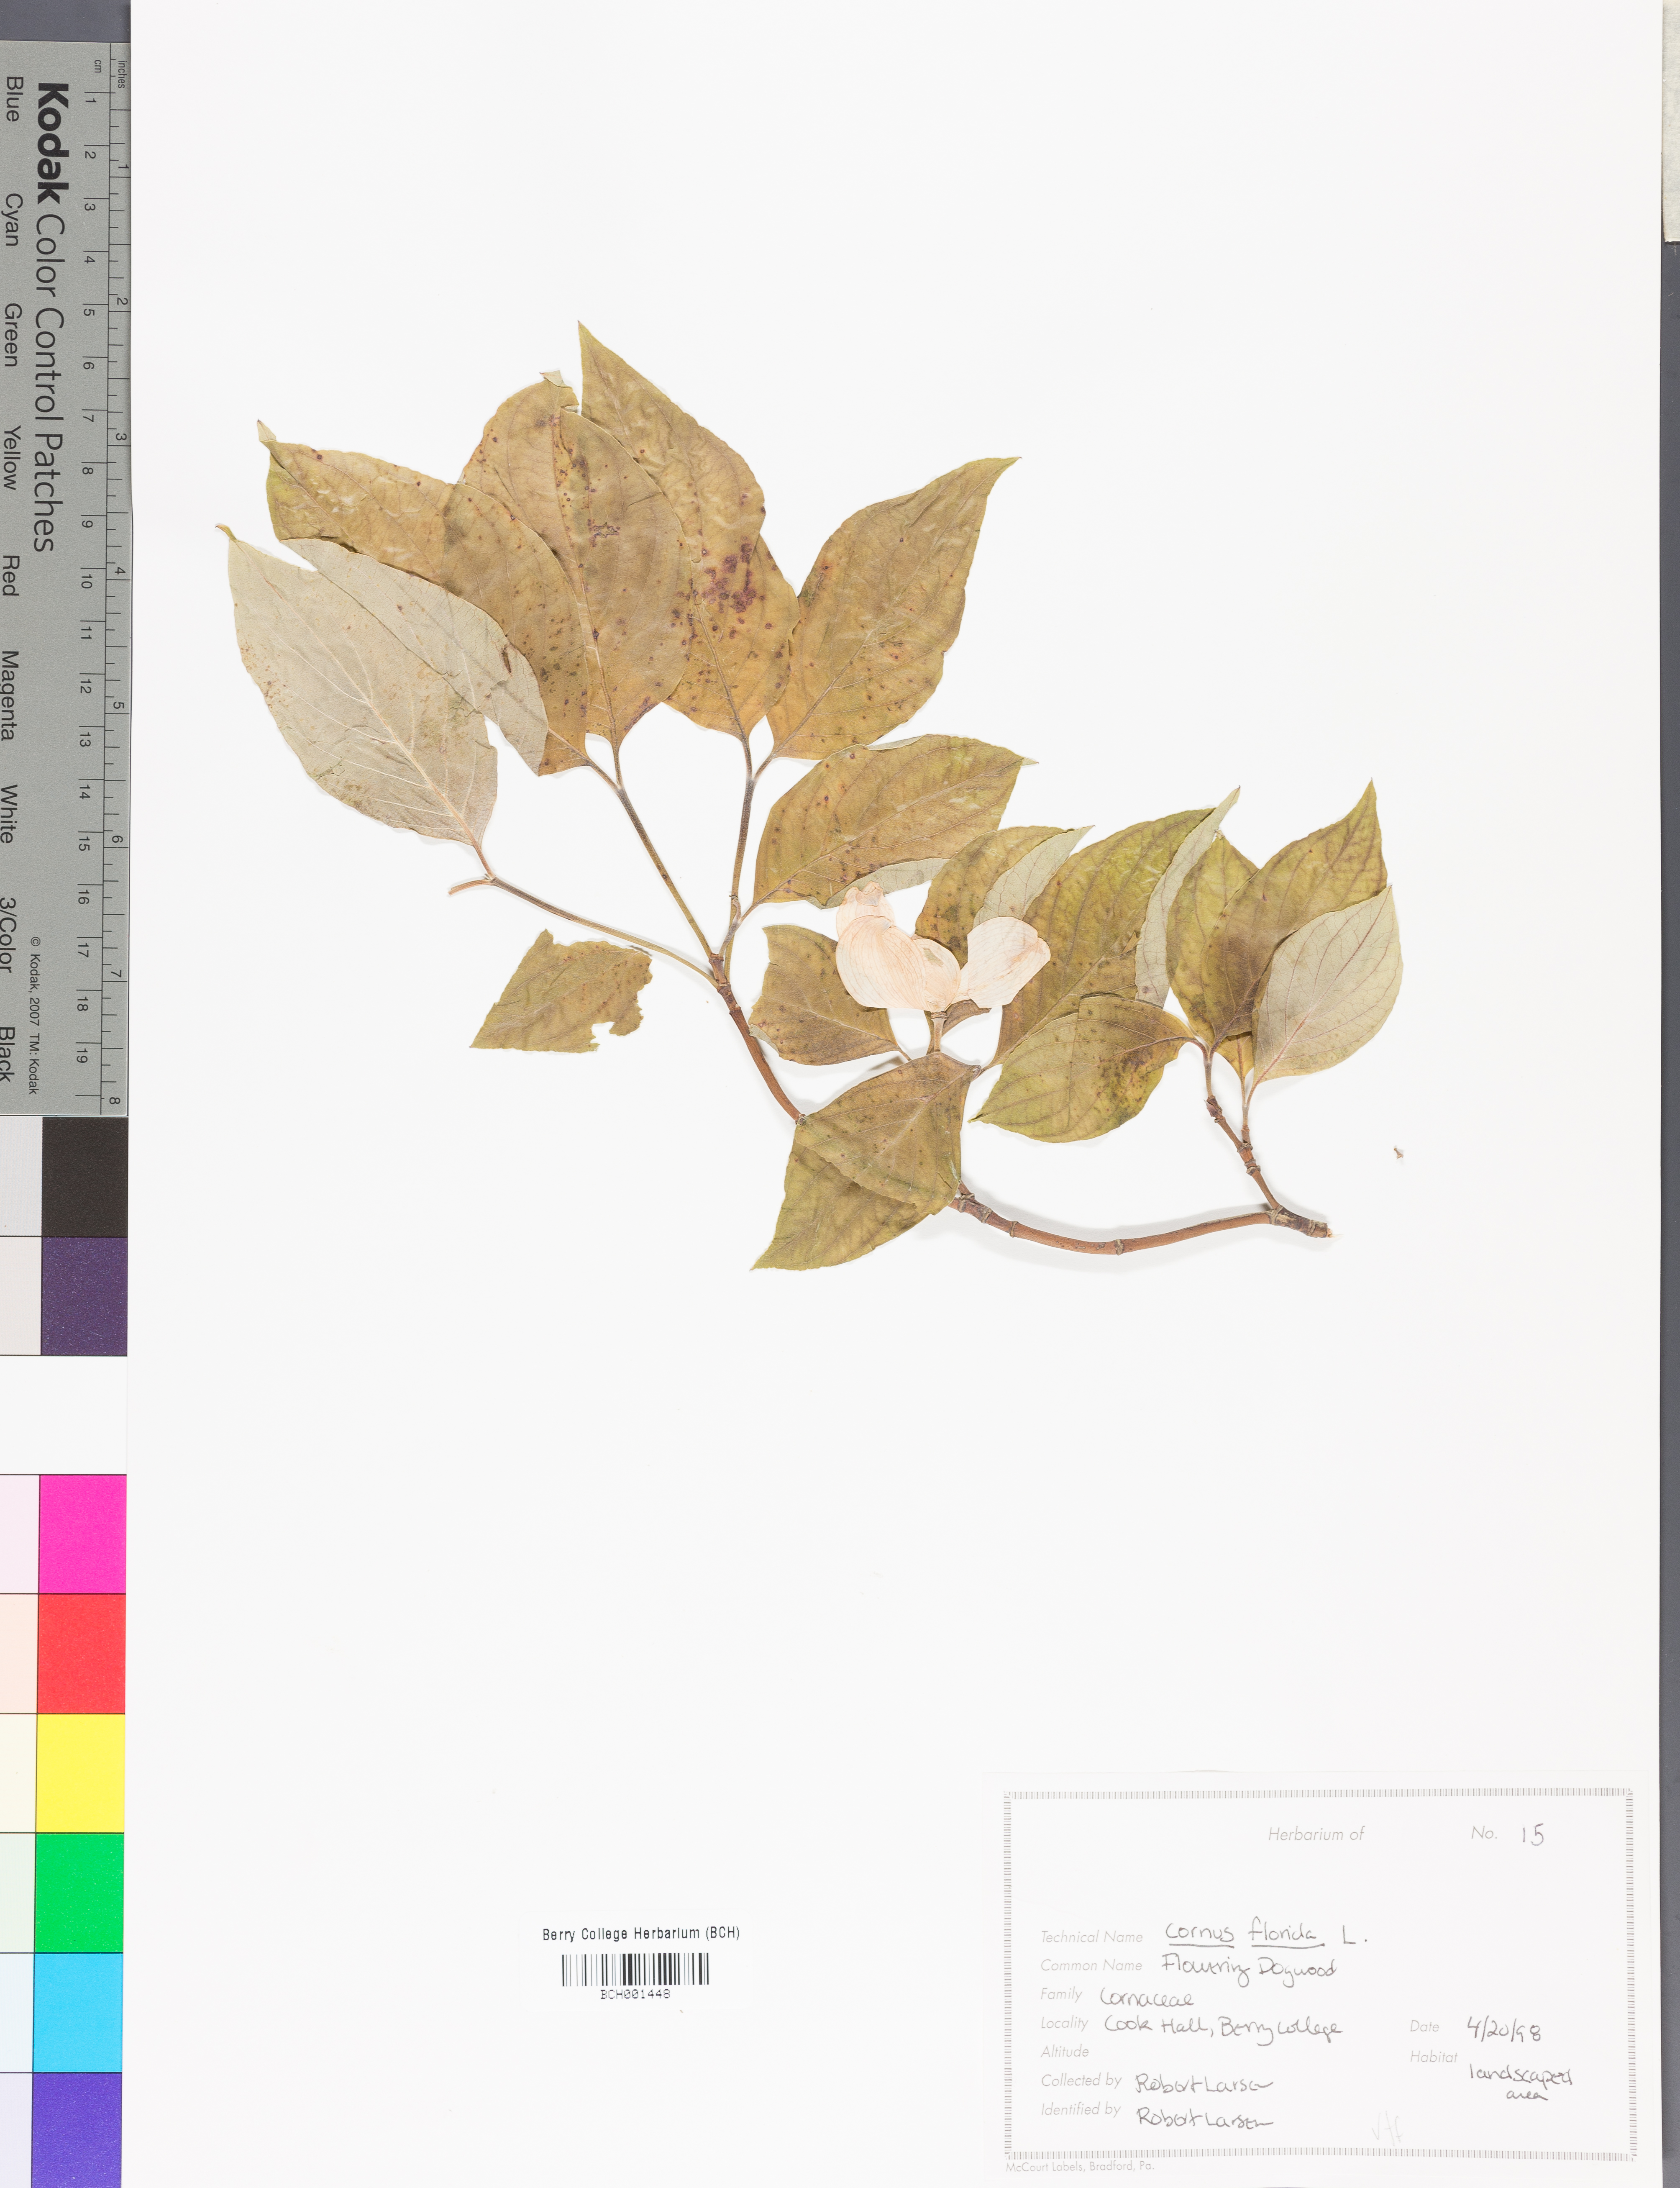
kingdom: Plantae
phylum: Tracheophyta
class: Magnoliopsida
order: Cornales
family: Cornaceae
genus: Cornus
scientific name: Cornus florida
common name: Flowering dogwood
